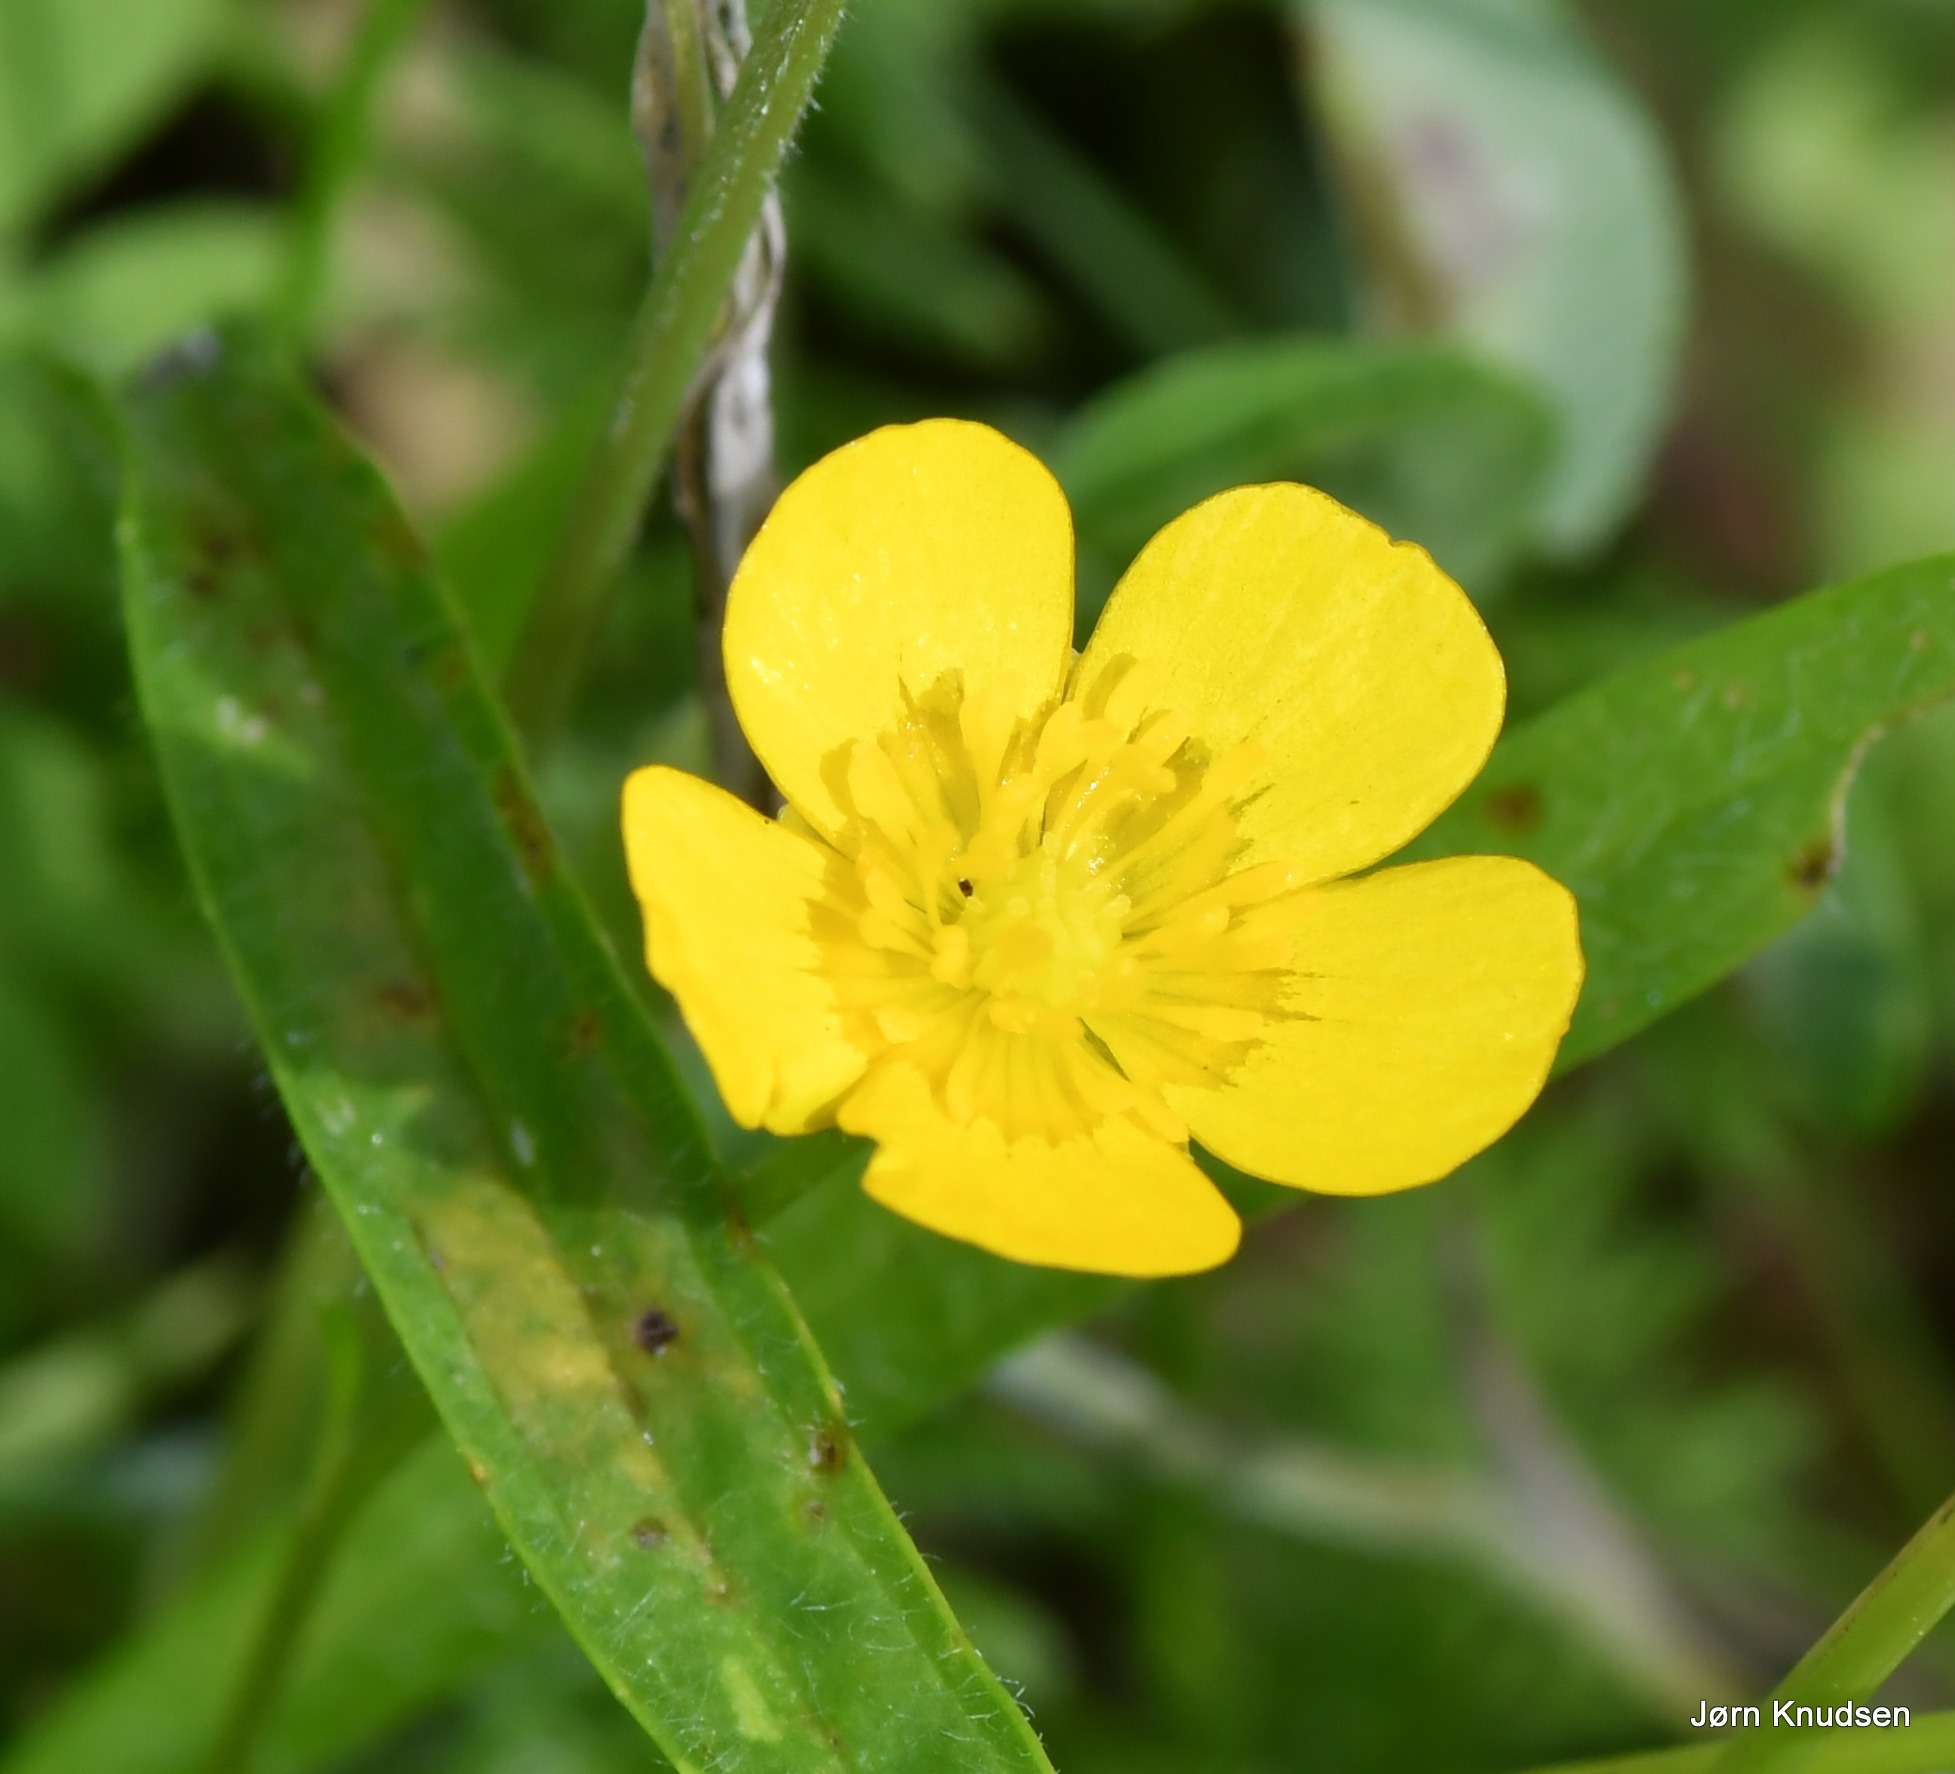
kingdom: Plantae
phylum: Tracheophyta
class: Magnoliopsida
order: Ranunculales
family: Ranunculaceae
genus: Ranunculus
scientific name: Ranunculus
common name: Ranunkelslægten
